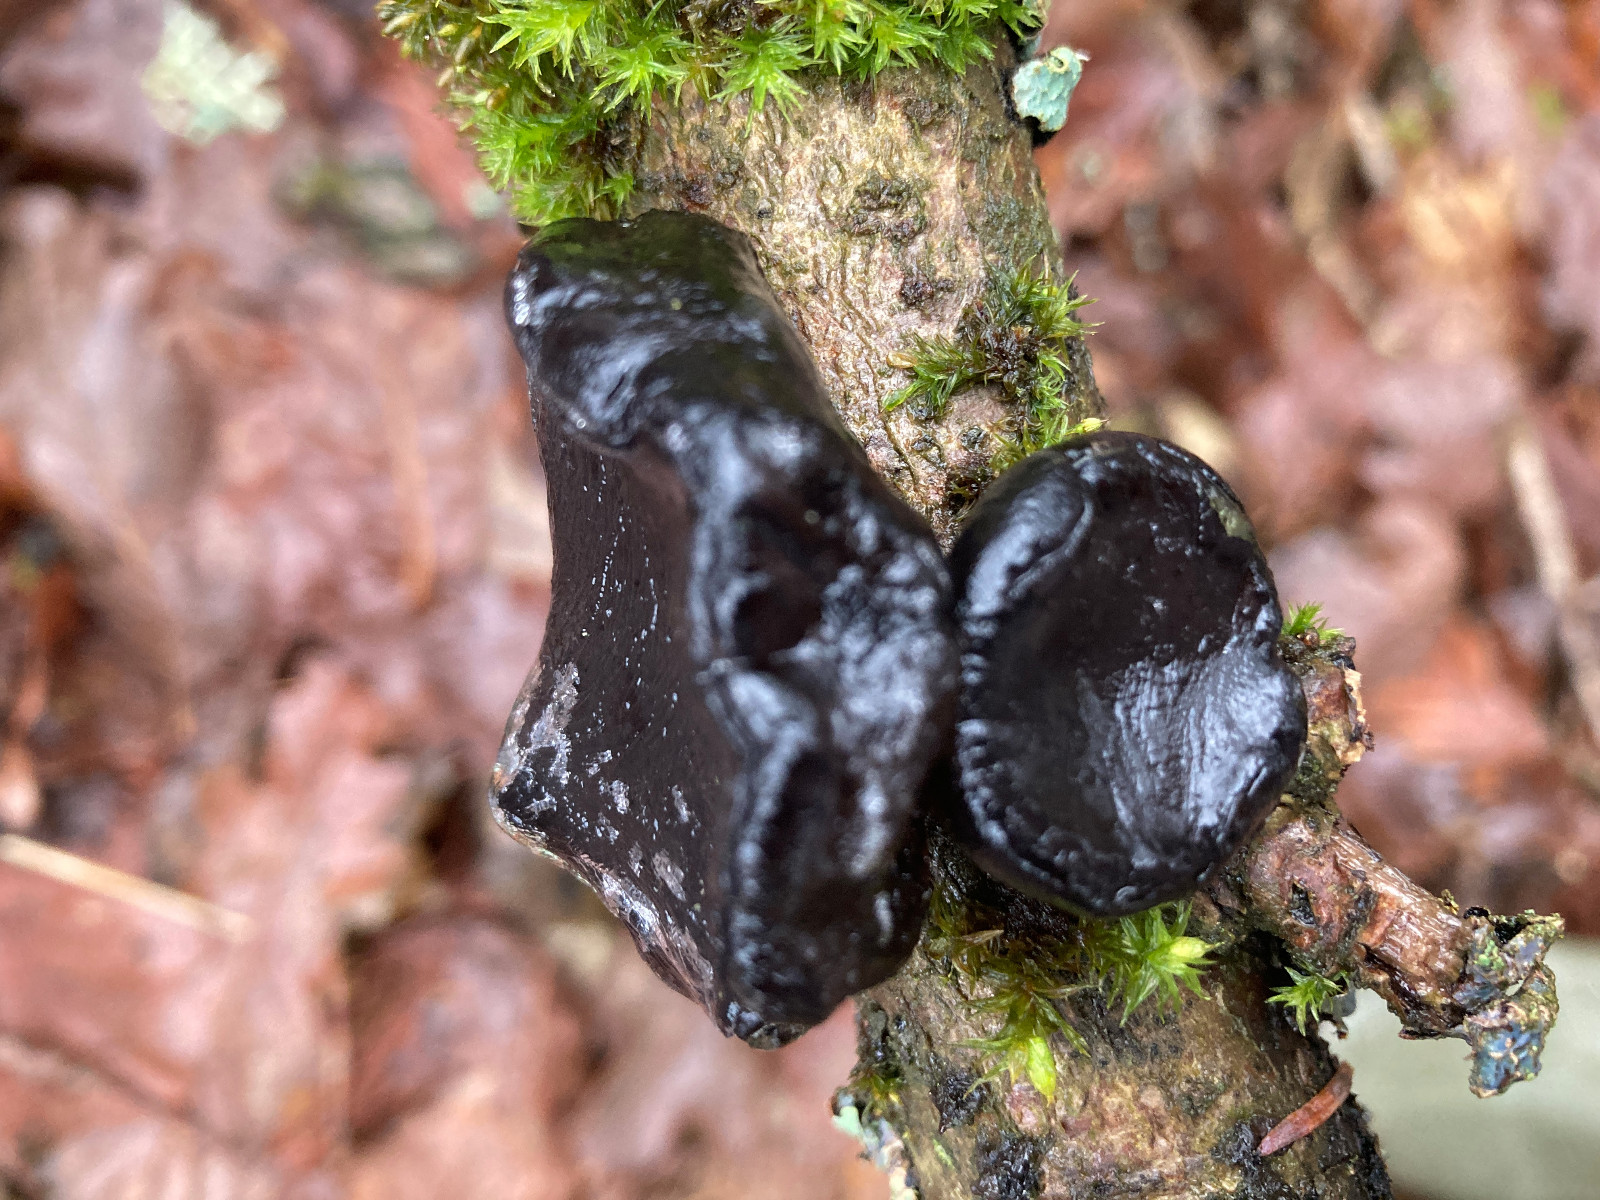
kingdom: Fungi
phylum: Basidiomycota
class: Agaricomycetes
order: Auriculariales
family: Auriculariaceae
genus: Exidia
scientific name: Exidia glandulosa
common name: ege-bævretop
